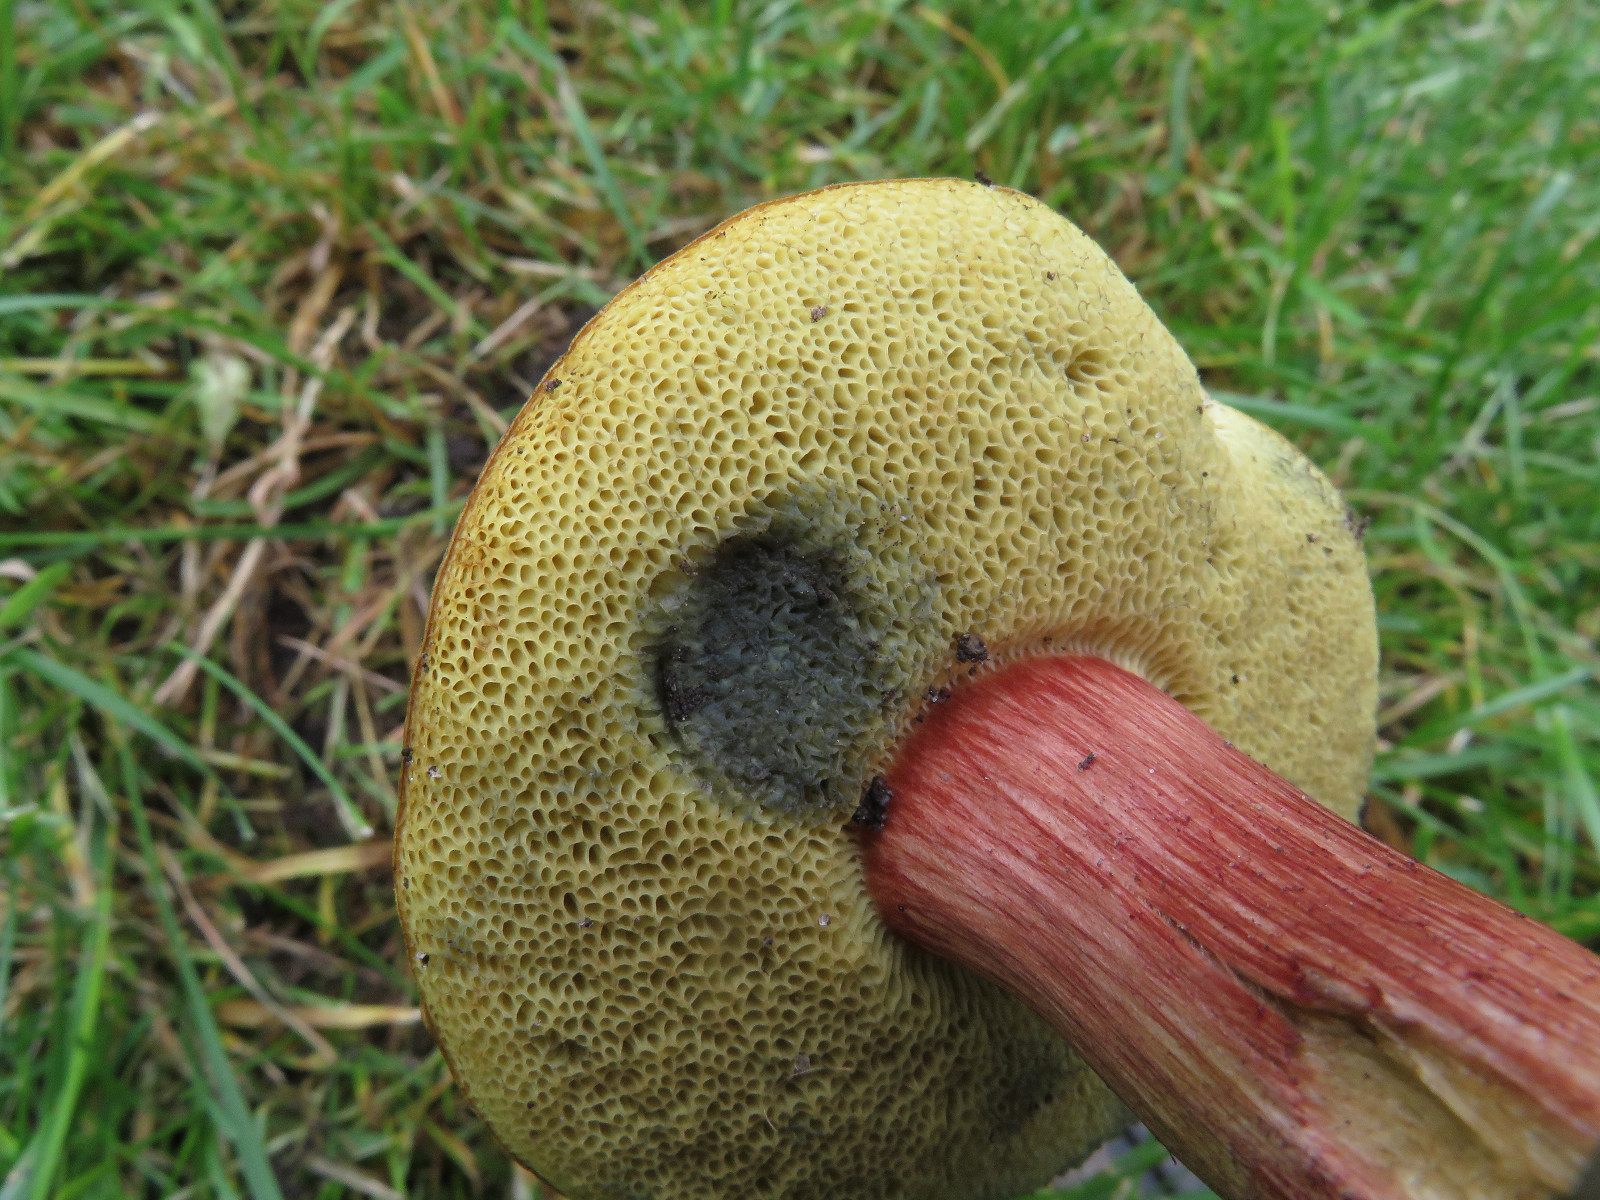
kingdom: Fungi
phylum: Basidiomycota
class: Agaricomycetes
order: Boletales
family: Boletaceae
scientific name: Boletaceae
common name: rørhatfamilien
